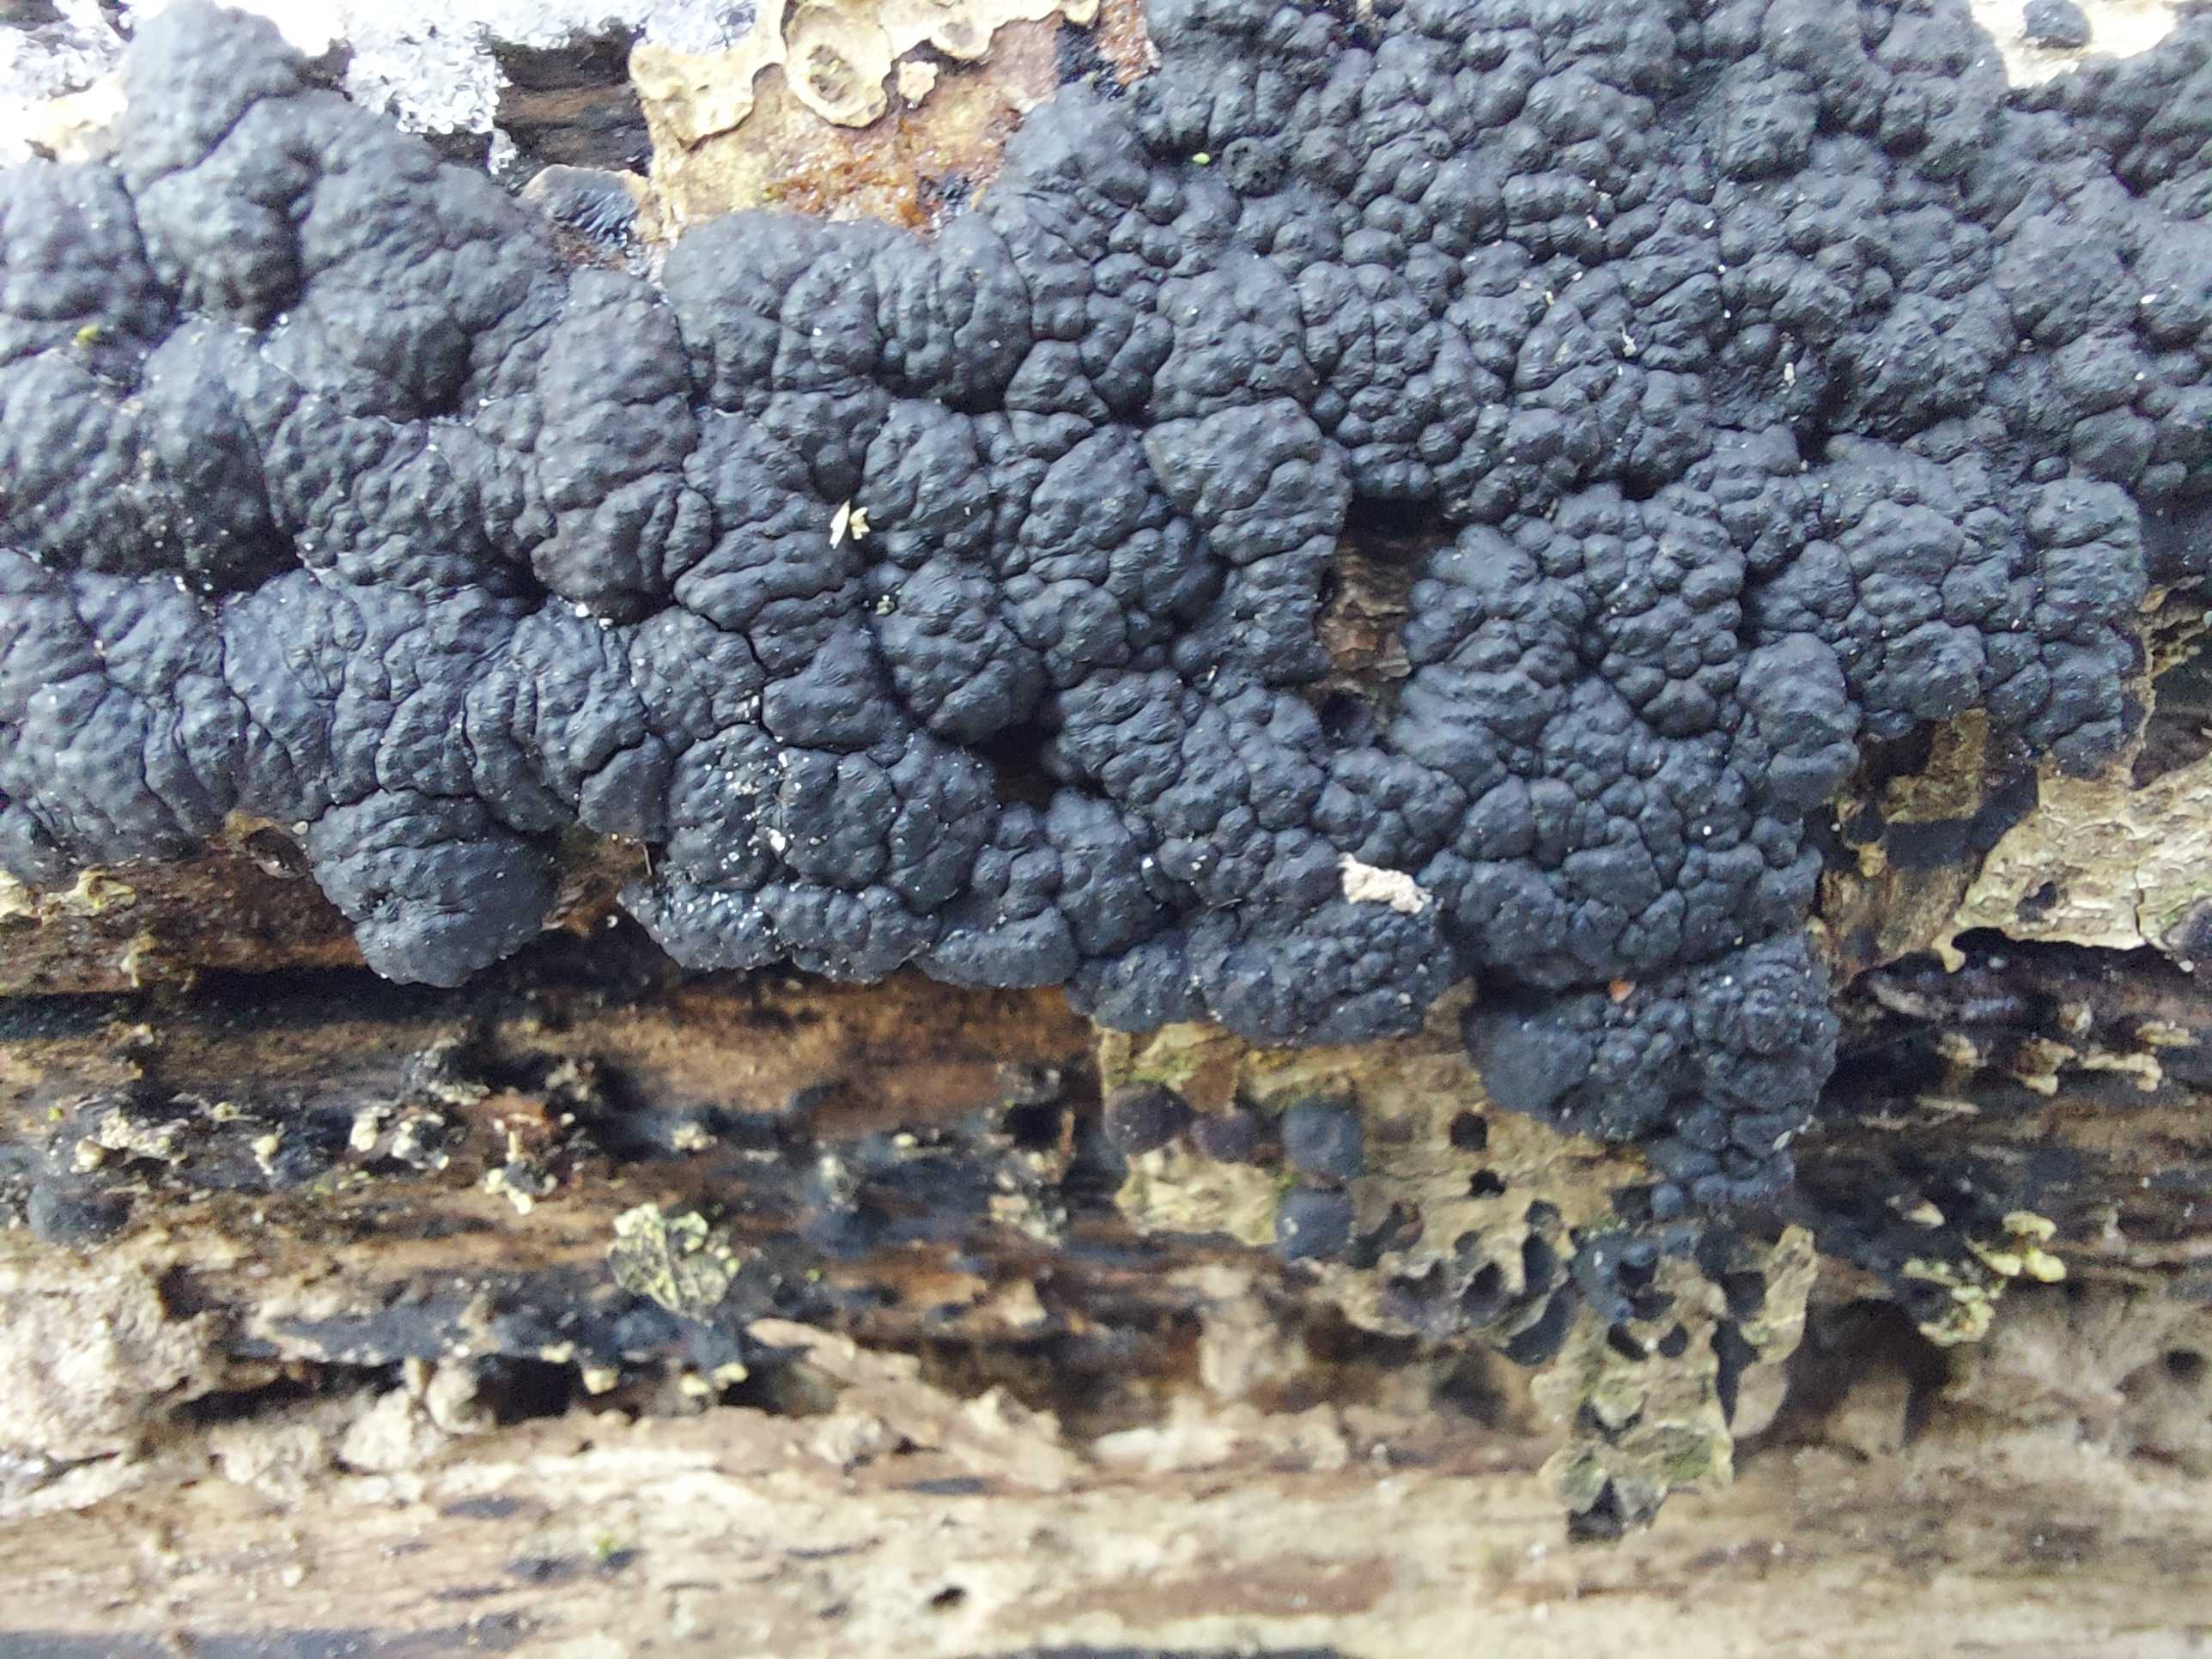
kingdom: Fungi
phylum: Ascomycota
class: Sordariomycetes
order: Xylariales
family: Hypoxylaceae
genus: Jackrogersella
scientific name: Jackrogersella cohaerens
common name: sammenflydende kulbær
